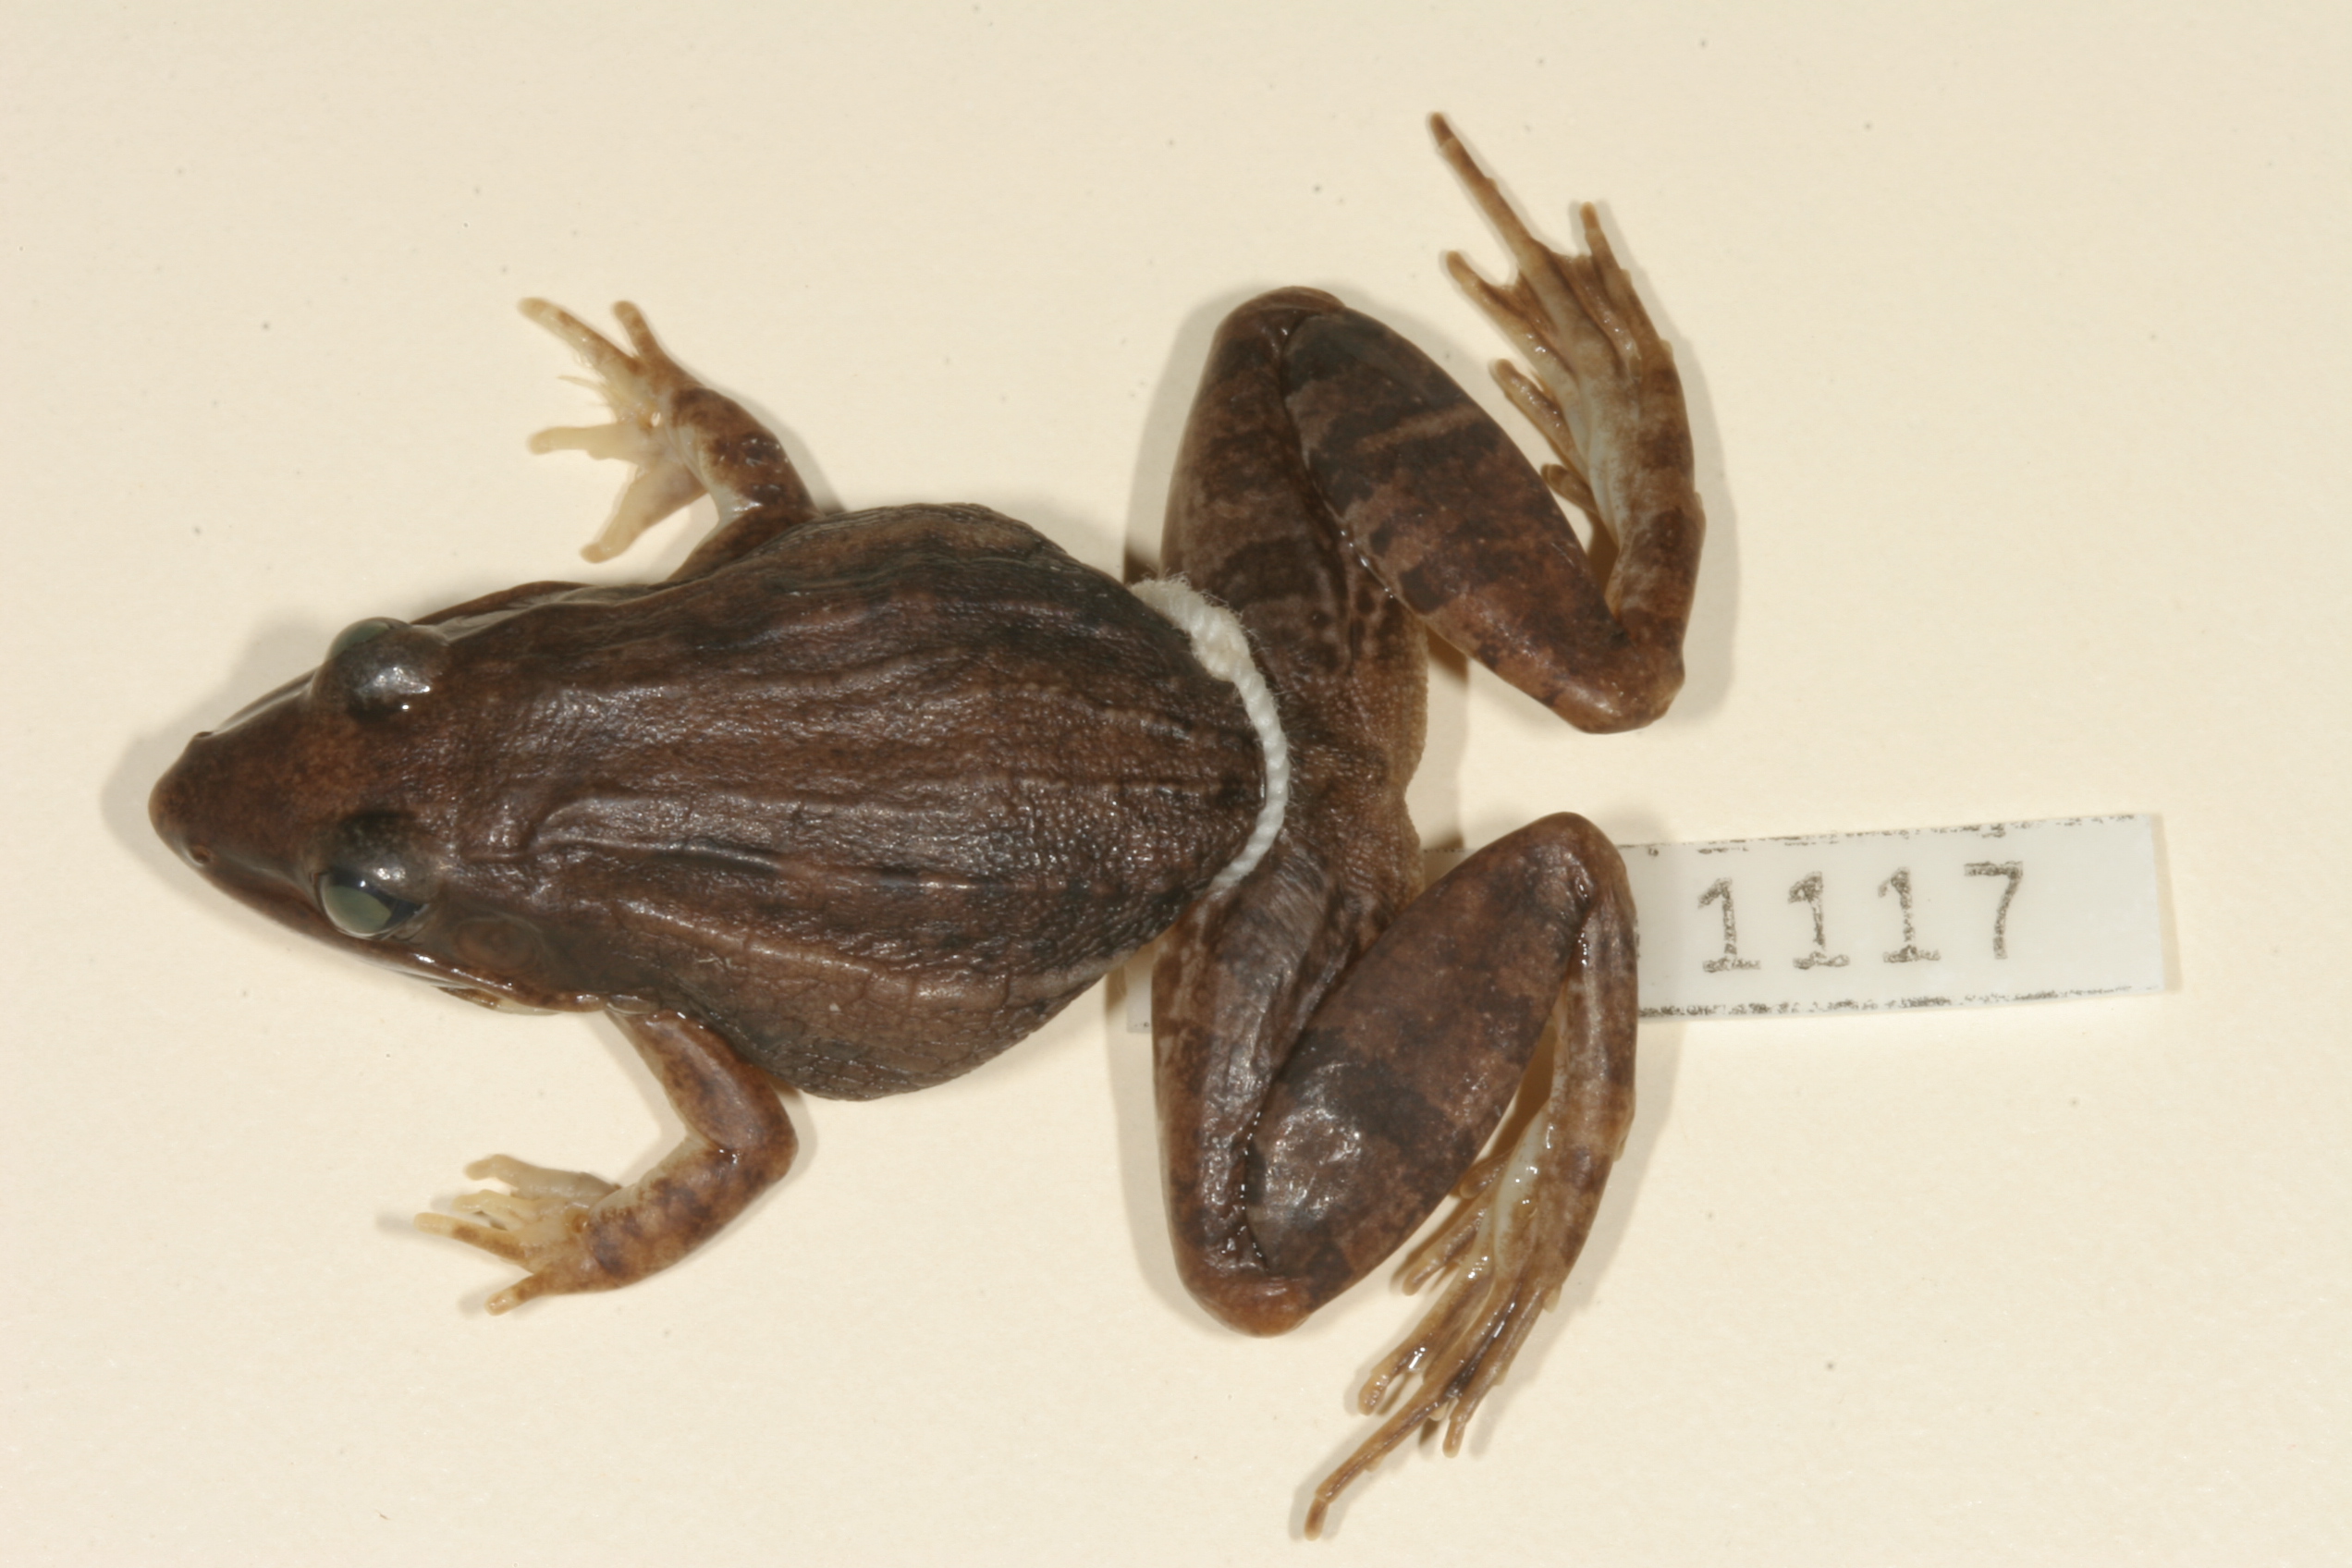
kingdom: Animalia
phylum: Chordata
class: Amphibia
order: Anura
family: Ptychadenidae
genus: Ptychadena
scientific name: Ptychadena mossambica
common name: Mozambique ridged frog
